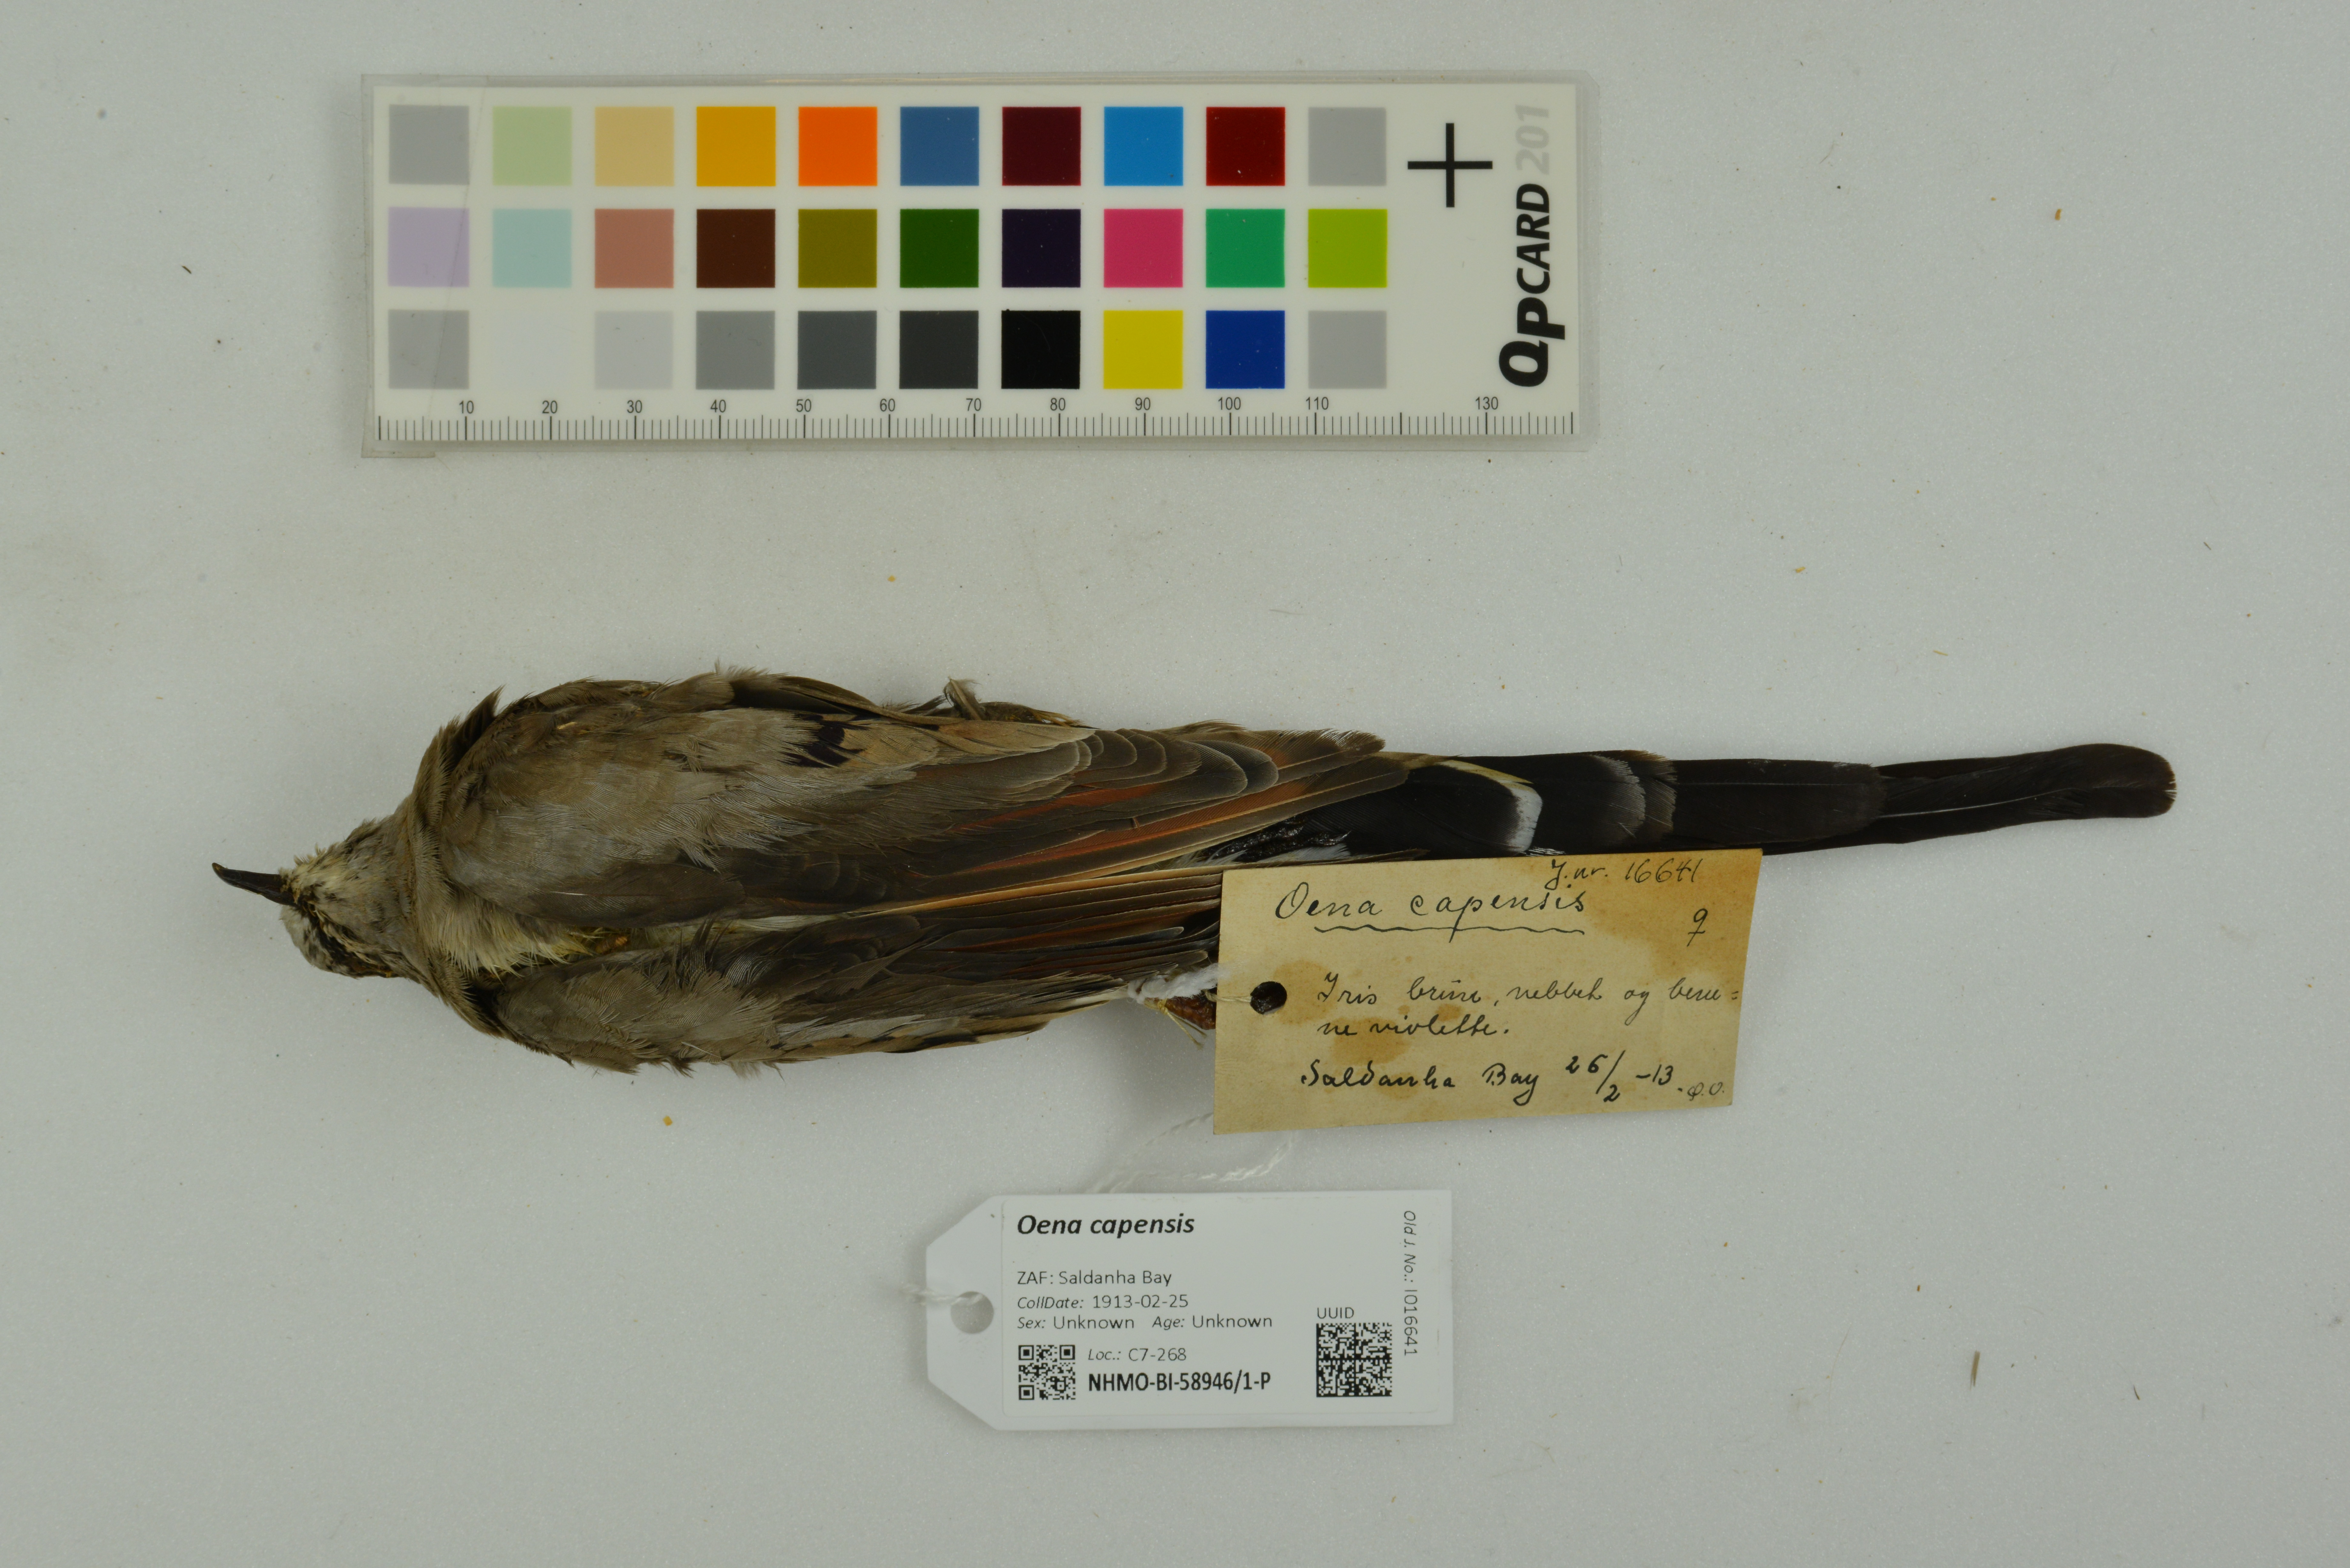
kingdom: Animalia
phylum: Chordata
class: Aves
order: Columbiformes
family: Columbidae
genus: Oena
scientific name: Oena capensis
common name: Namaqua dove
